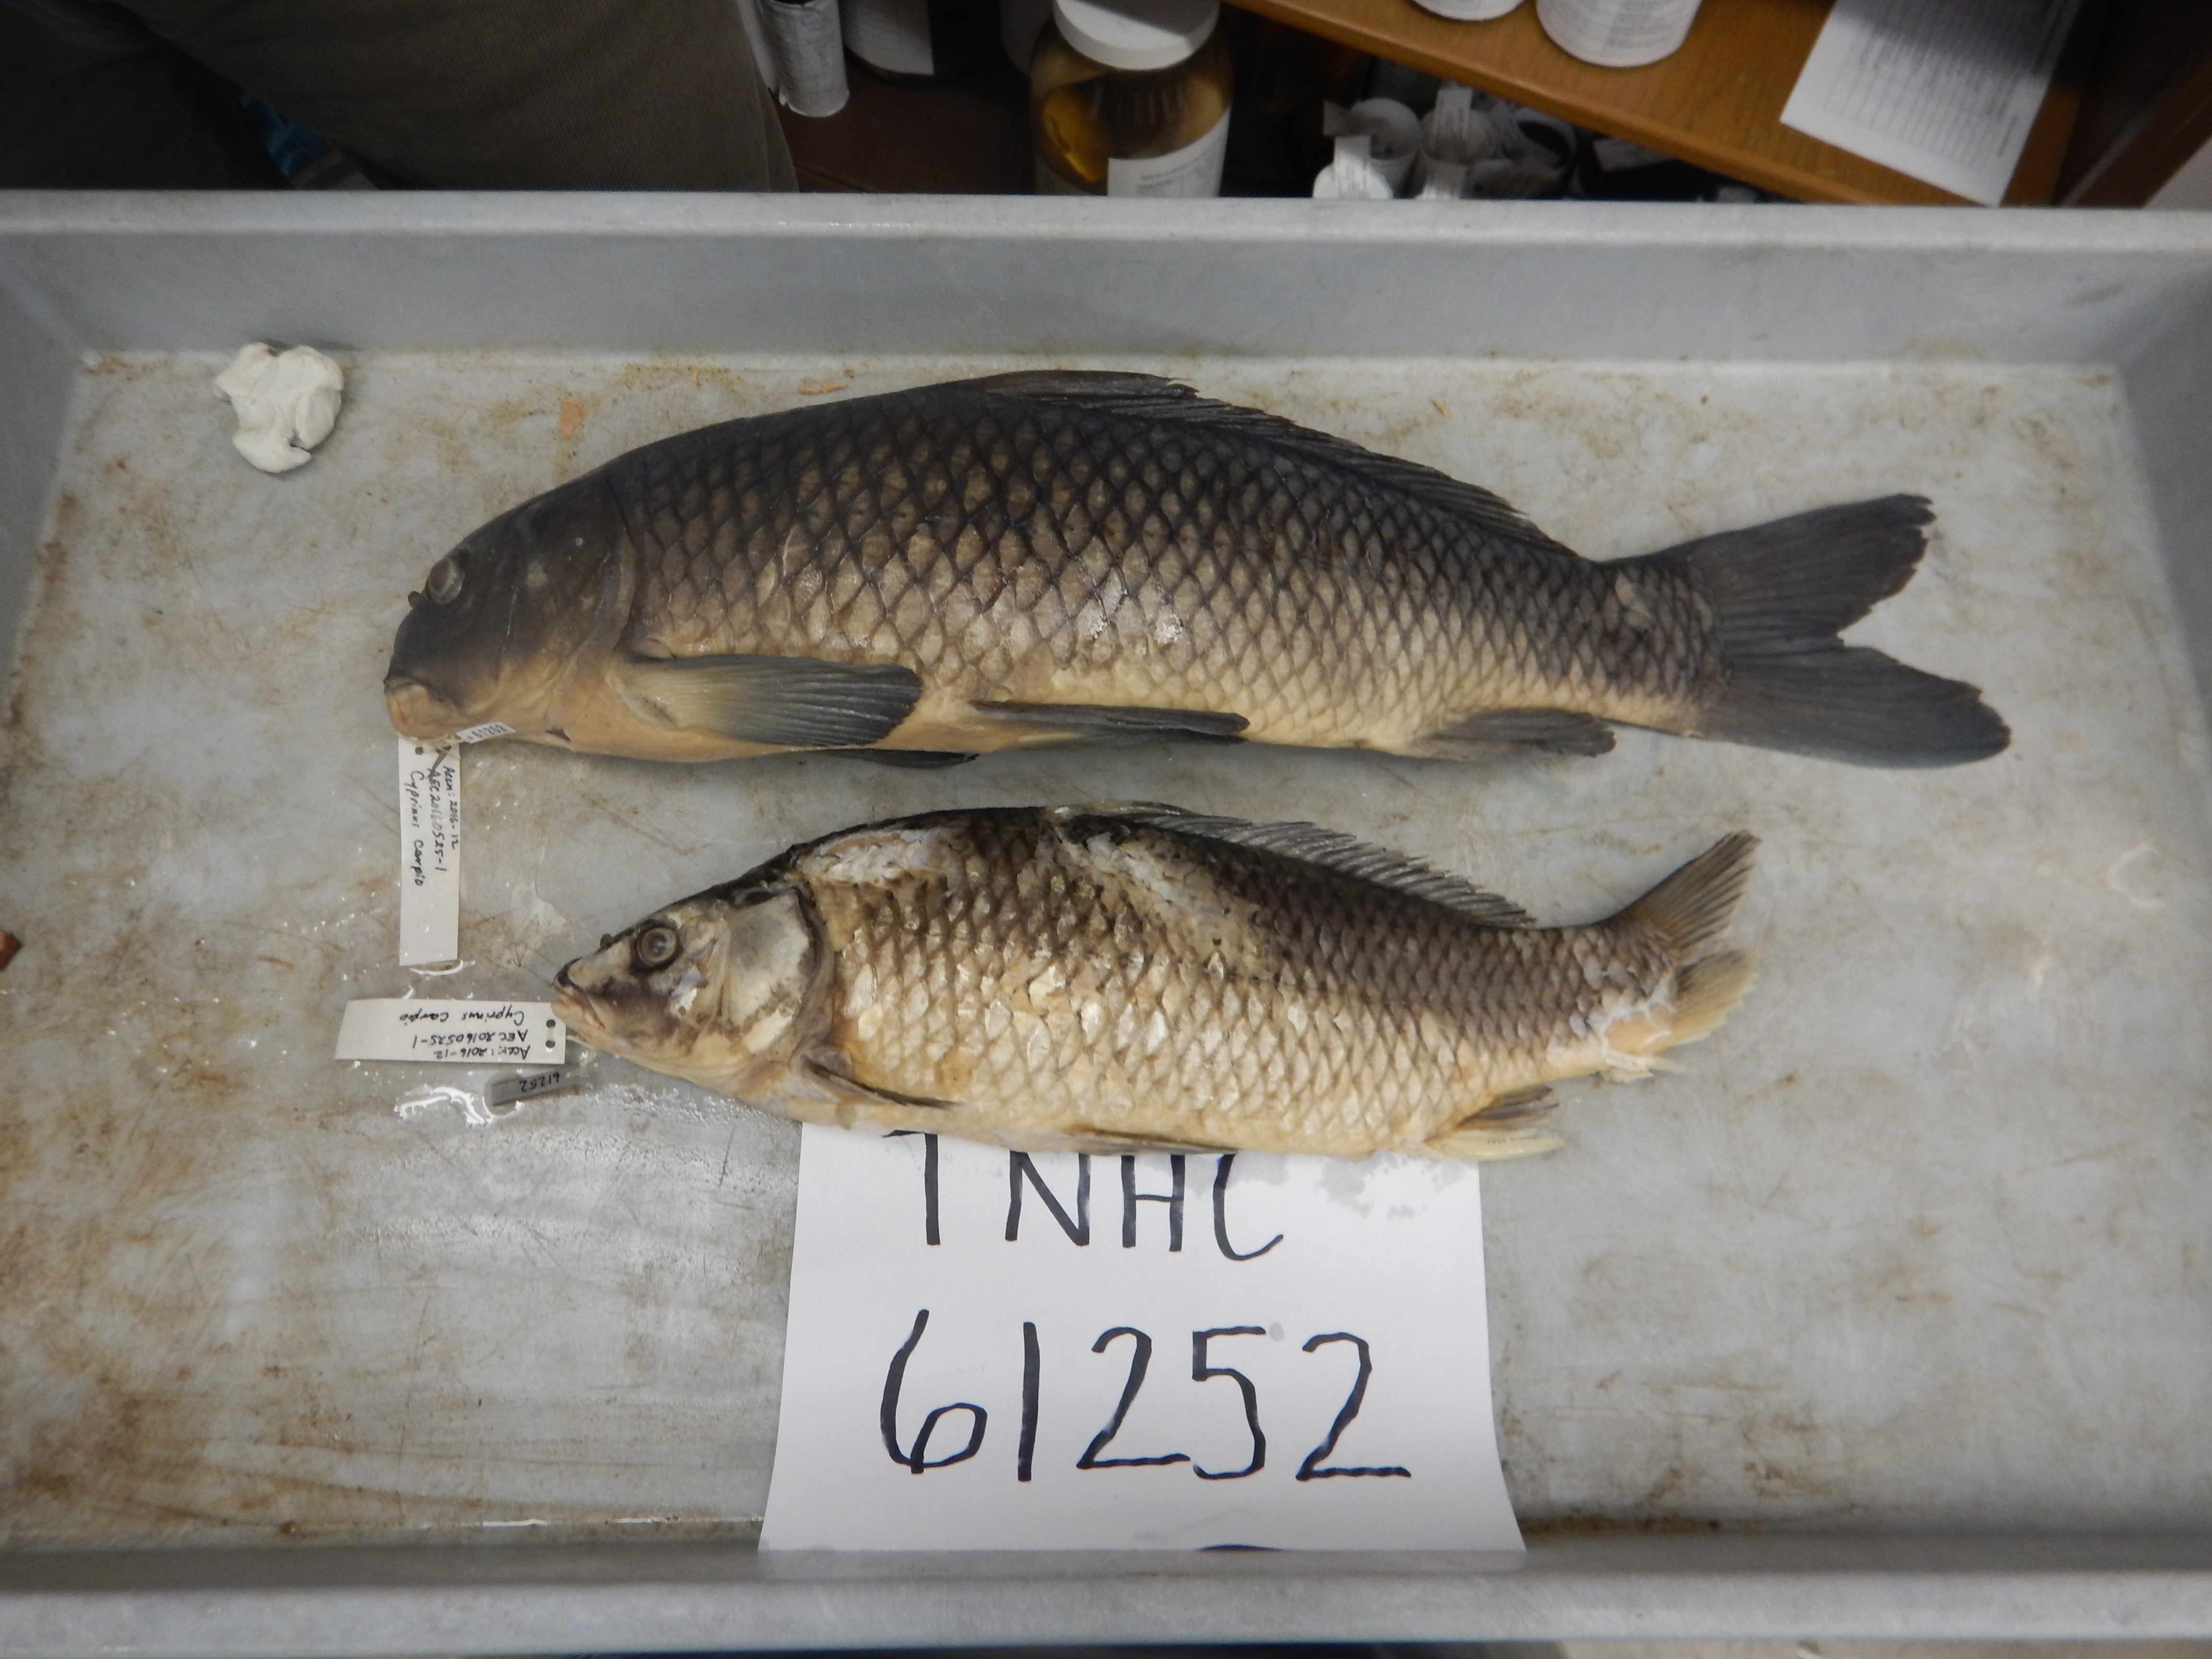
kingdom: Animalia
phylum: Chordata
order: Cypriniformes
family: Cyprinidae
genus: Cyprinus
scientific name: Cyprinus carpio
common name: Common carp
